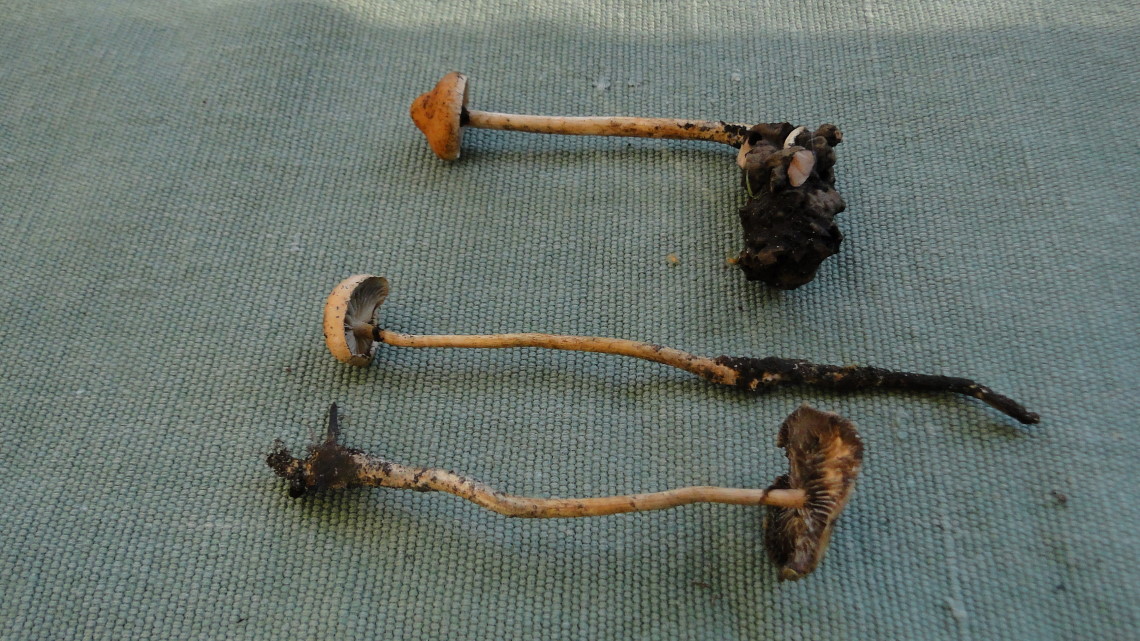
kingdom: Fungi
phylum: Basidiomycota
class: Agaricomycetes
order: Agaricales
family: Hymenogastraceae
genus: Psilocybe
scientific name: Psilocybe tuberifera
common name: knold-svovlhat
